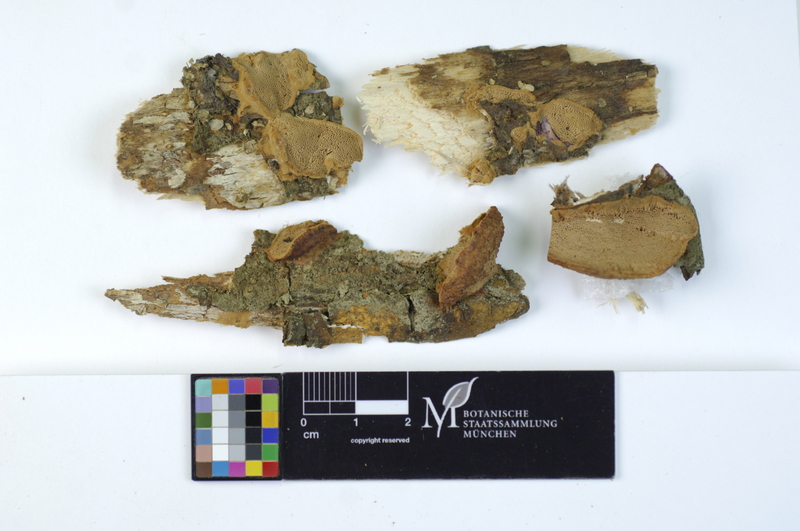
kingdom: Fungi
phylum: Basidiomycota
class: Agaricomycetes
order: Polyporales
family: Phanerochaetaceae
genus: Hapalopilus
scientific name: Hapalopilus rutilans
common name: Tender nesting polypore
